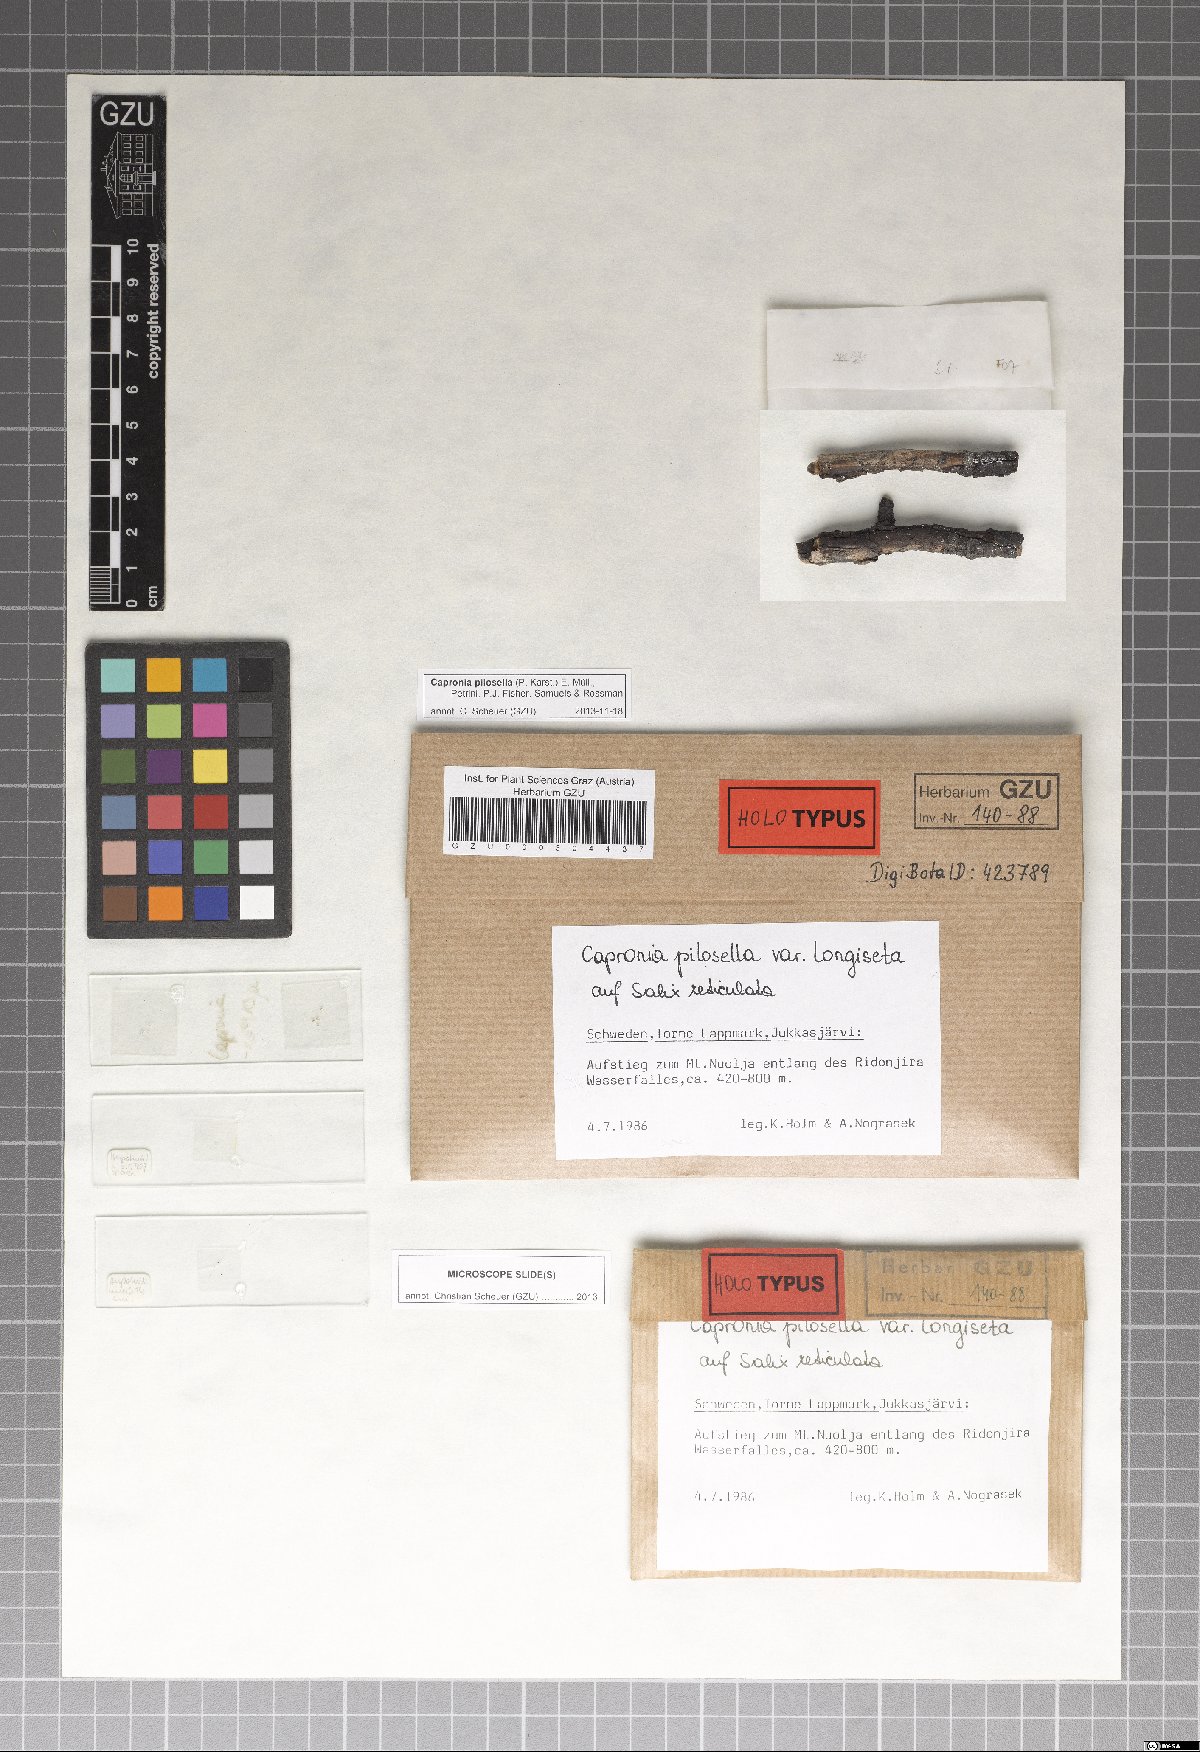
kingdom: Fungi
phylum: Ascomycota
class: Eurotiomycetes
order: Chaetothyriales
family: Herpotrichiellaceae
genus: Capronia
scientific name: Capronia pilosella
